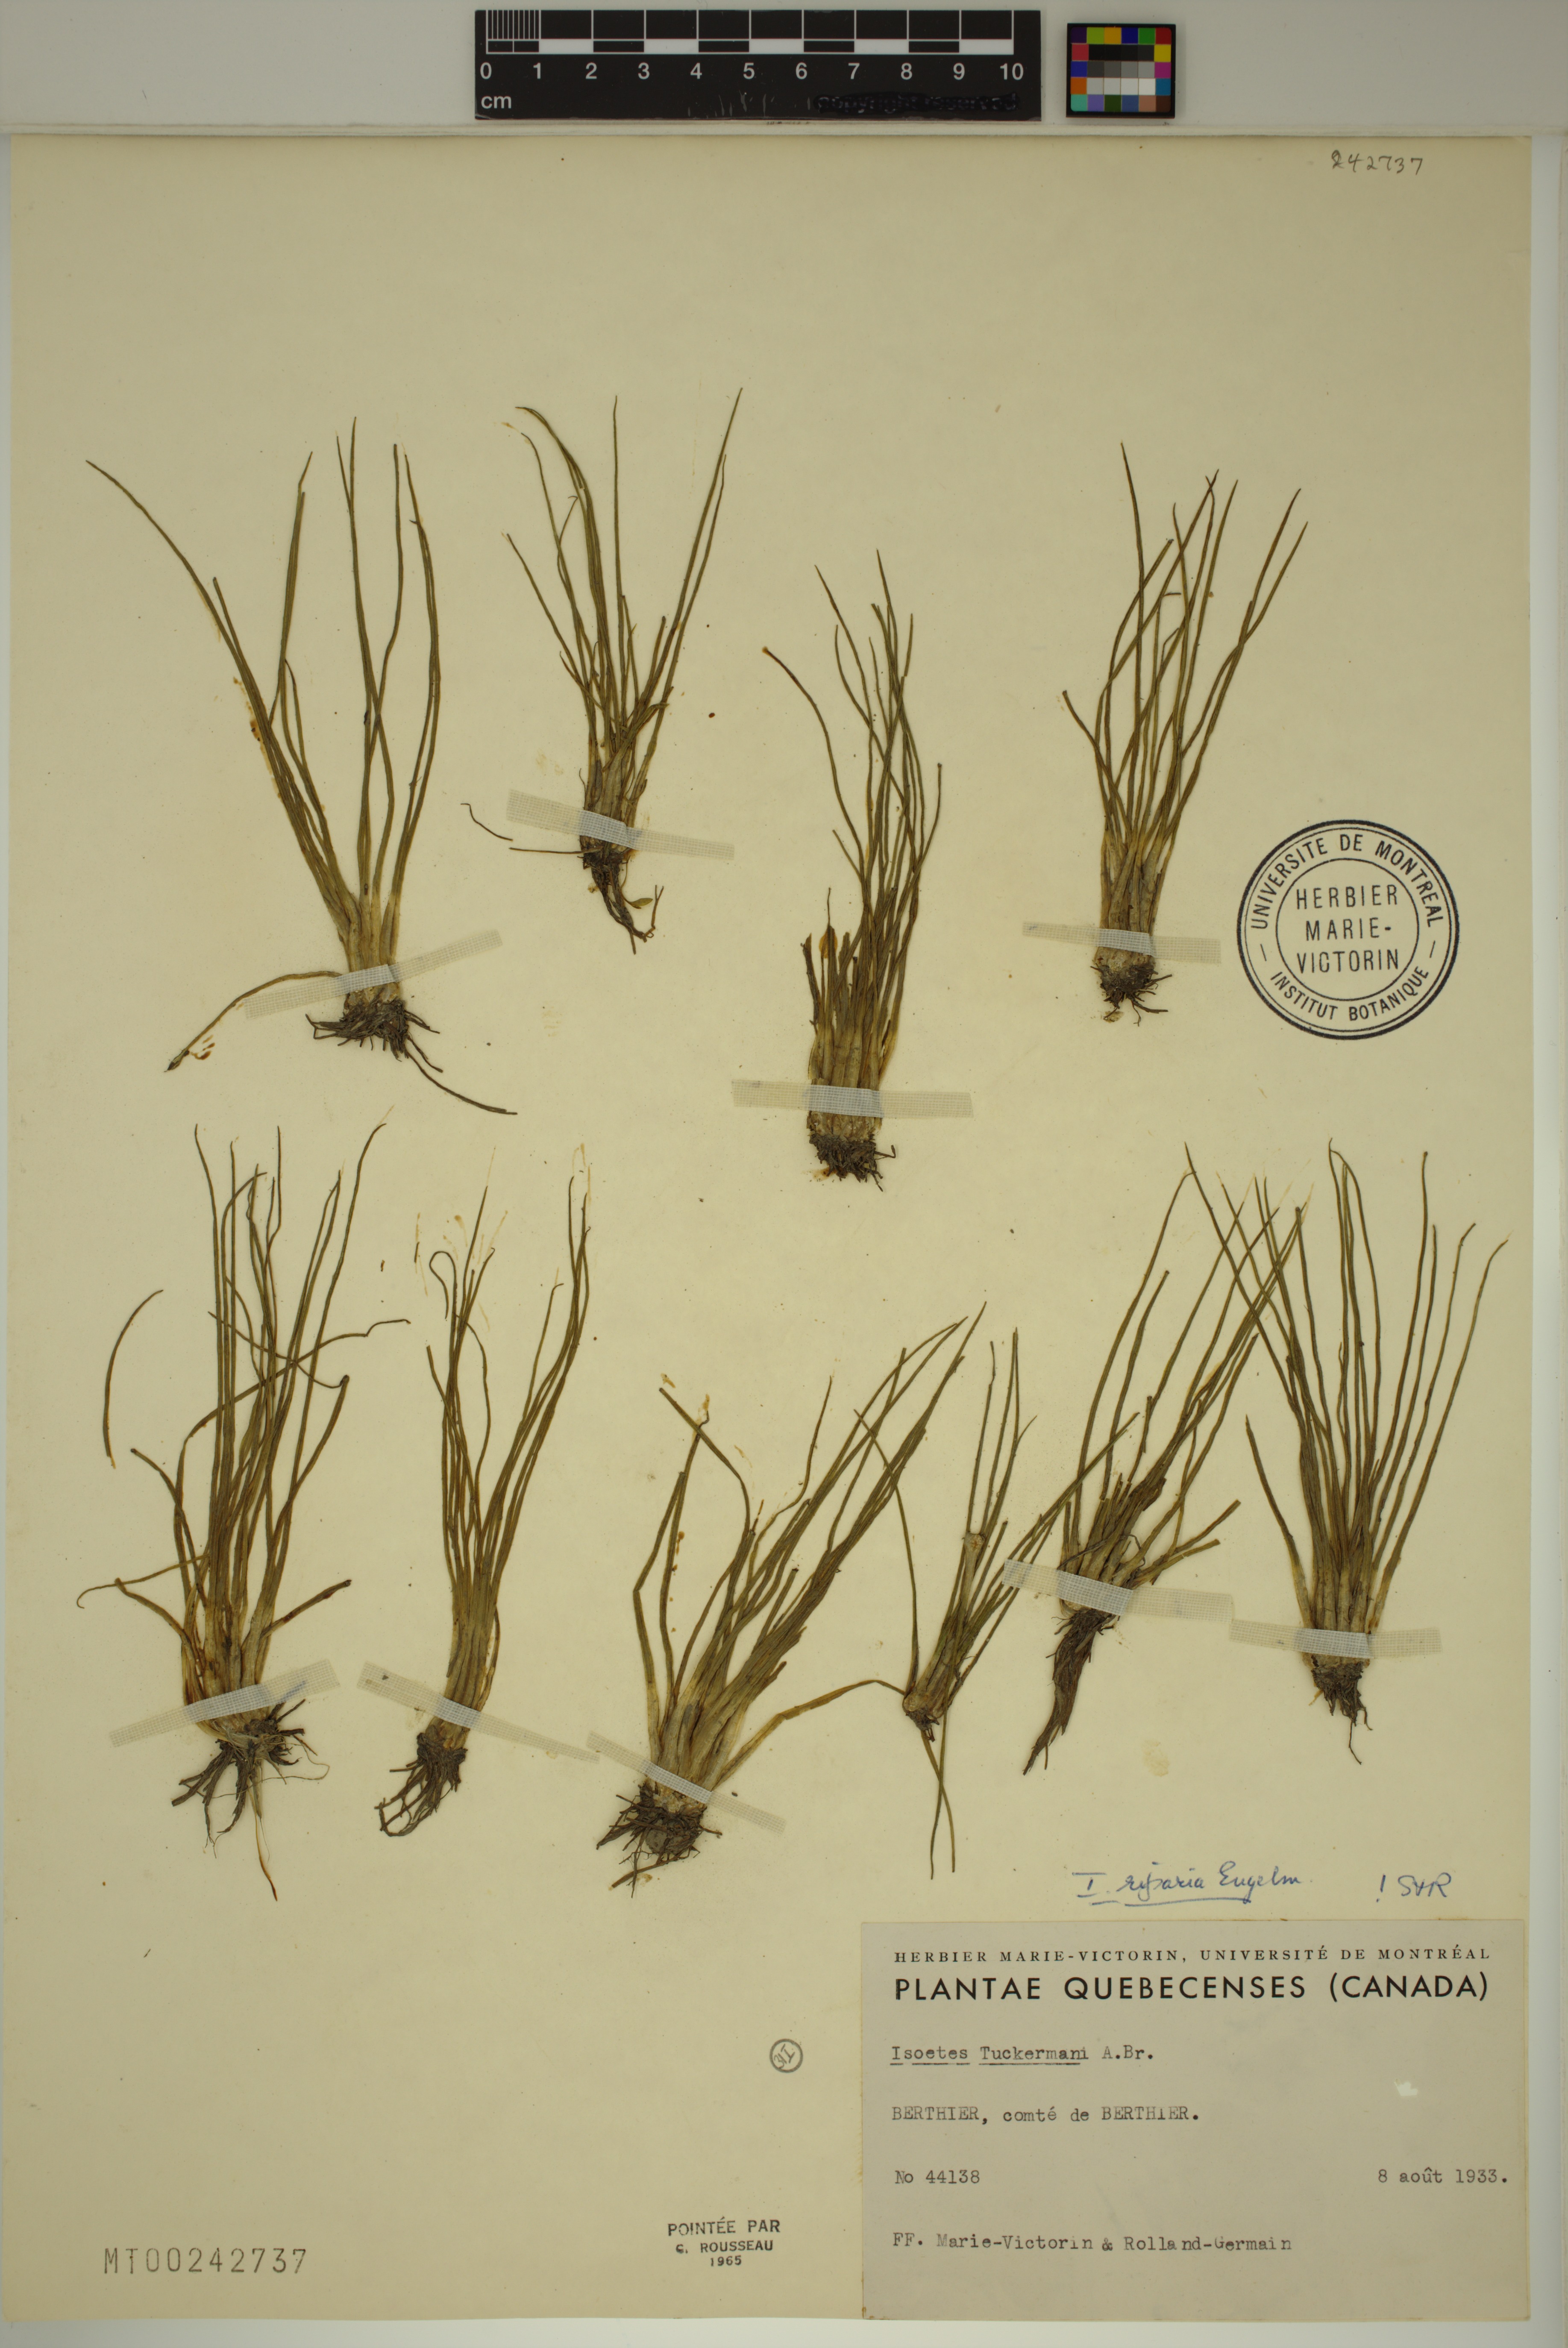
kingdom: Plantae
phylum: Tracheophyta
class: Lycopodiopsida
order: Isoetales
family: Isoetaceae
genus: Isoetes
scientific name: Isoetes laurentiana
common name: St. lawrence quillwort
